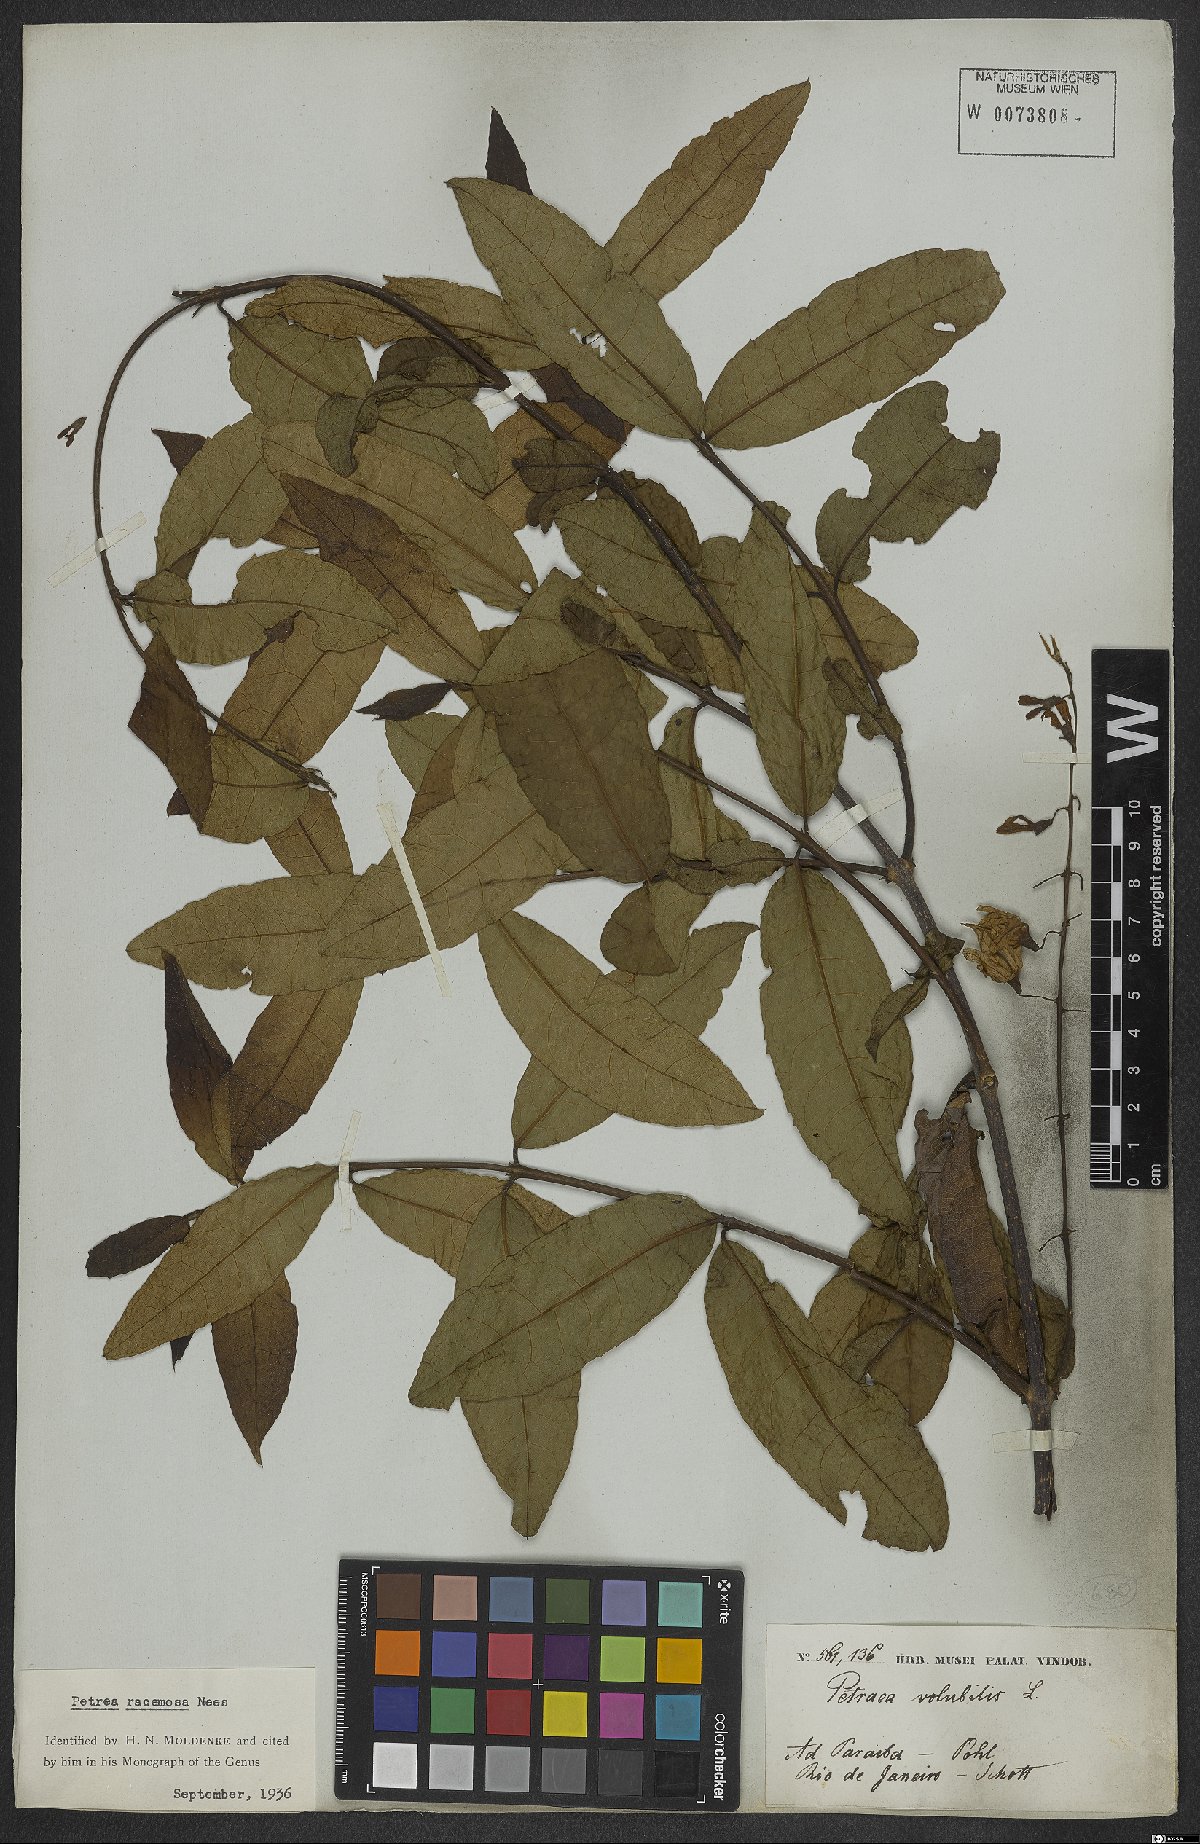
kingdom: Plantae
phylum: Tracheophyta
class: Magnoliopsida
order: Lamiales
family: Verbenaceae
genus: Petrea
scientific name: Petrea volubilis
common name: Queen's-wreath
